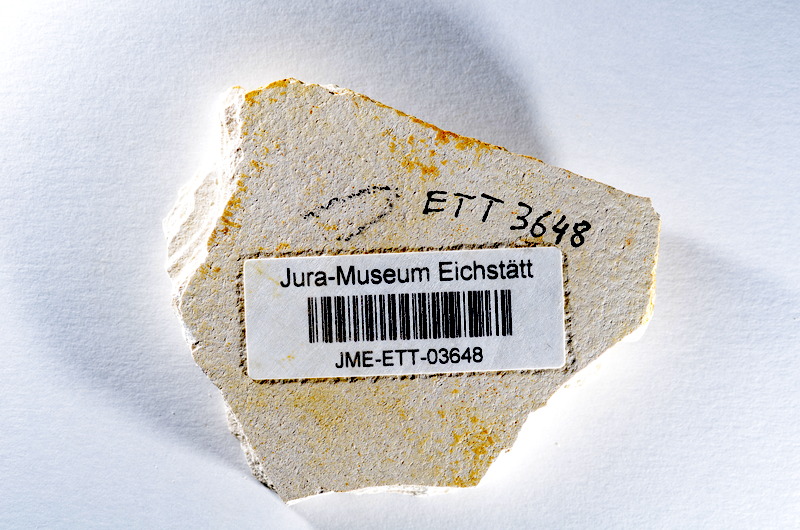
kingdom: Animalia
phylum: Chordata
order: Salmoniformes
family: Orthogonikleithridae
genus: Orthogonikleithrus
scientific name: Orthogonikleithrus hoelli
